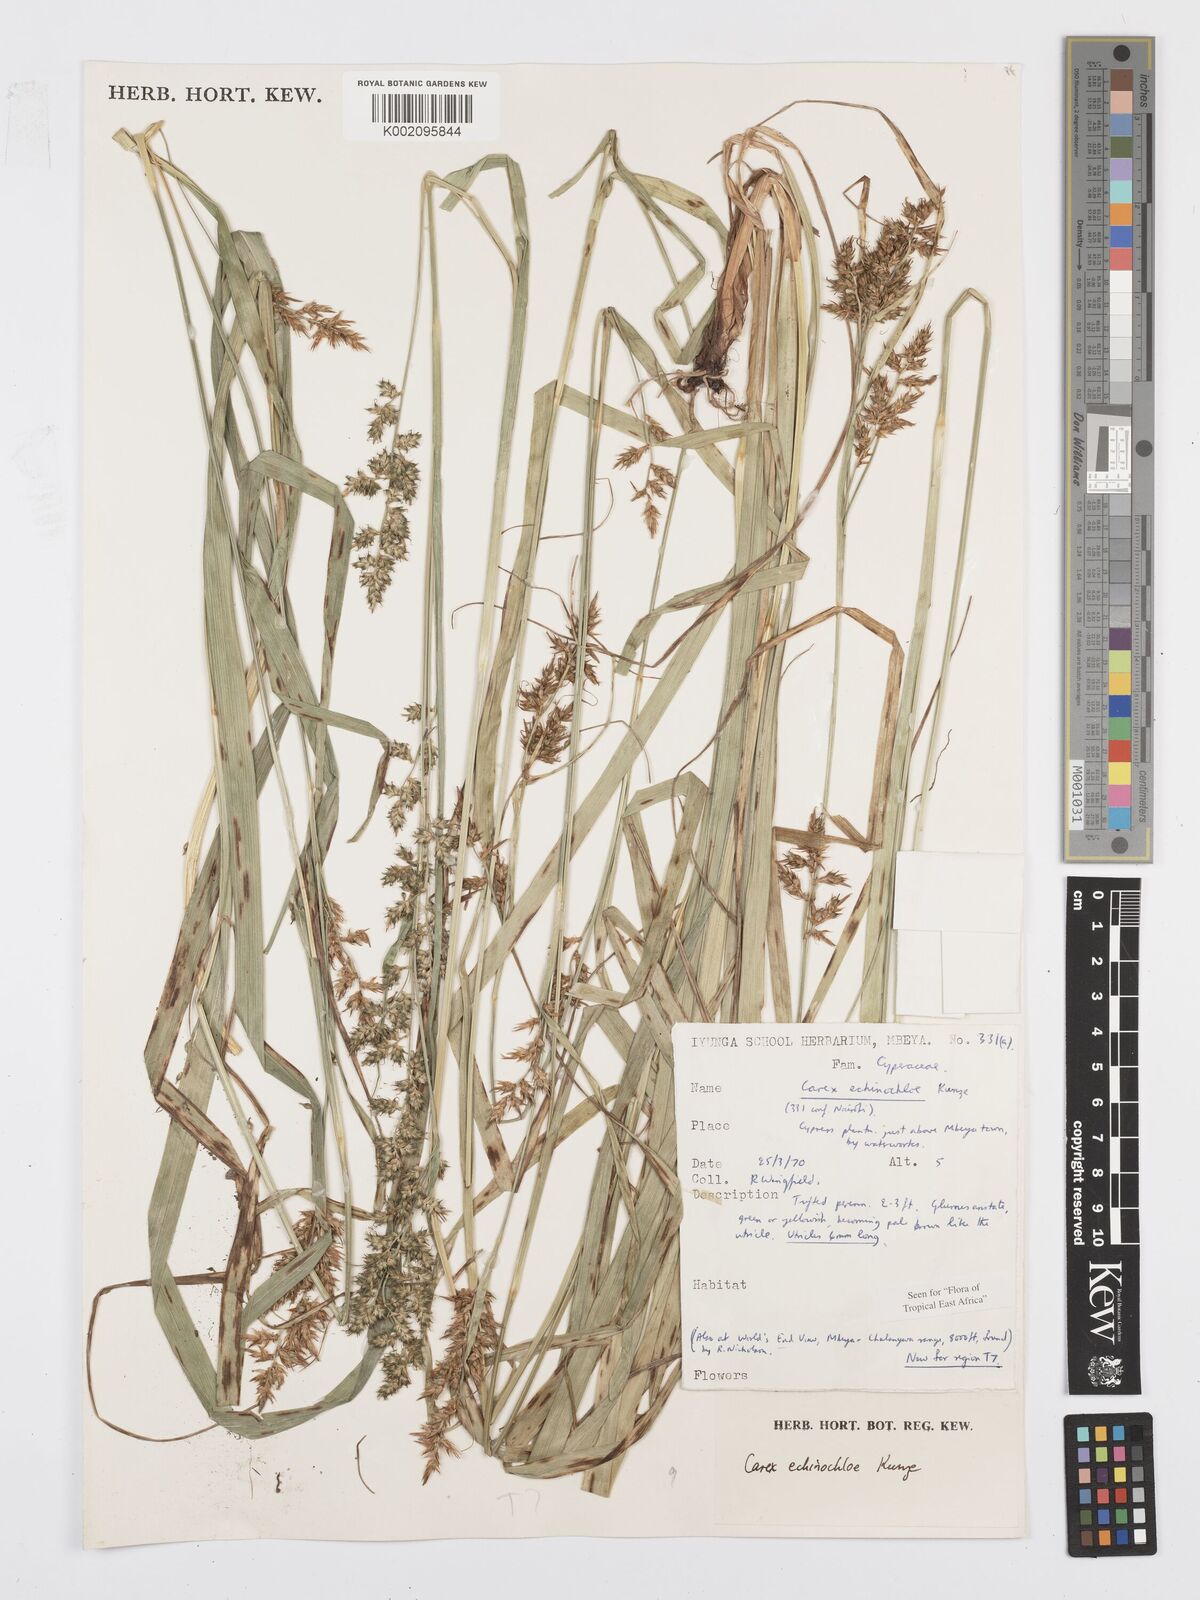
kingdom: Plantae
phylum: Tracheophyta
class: Liliopsida
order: Poales
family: Cyperaceae
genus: Carex
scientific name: Carex echinochloe
